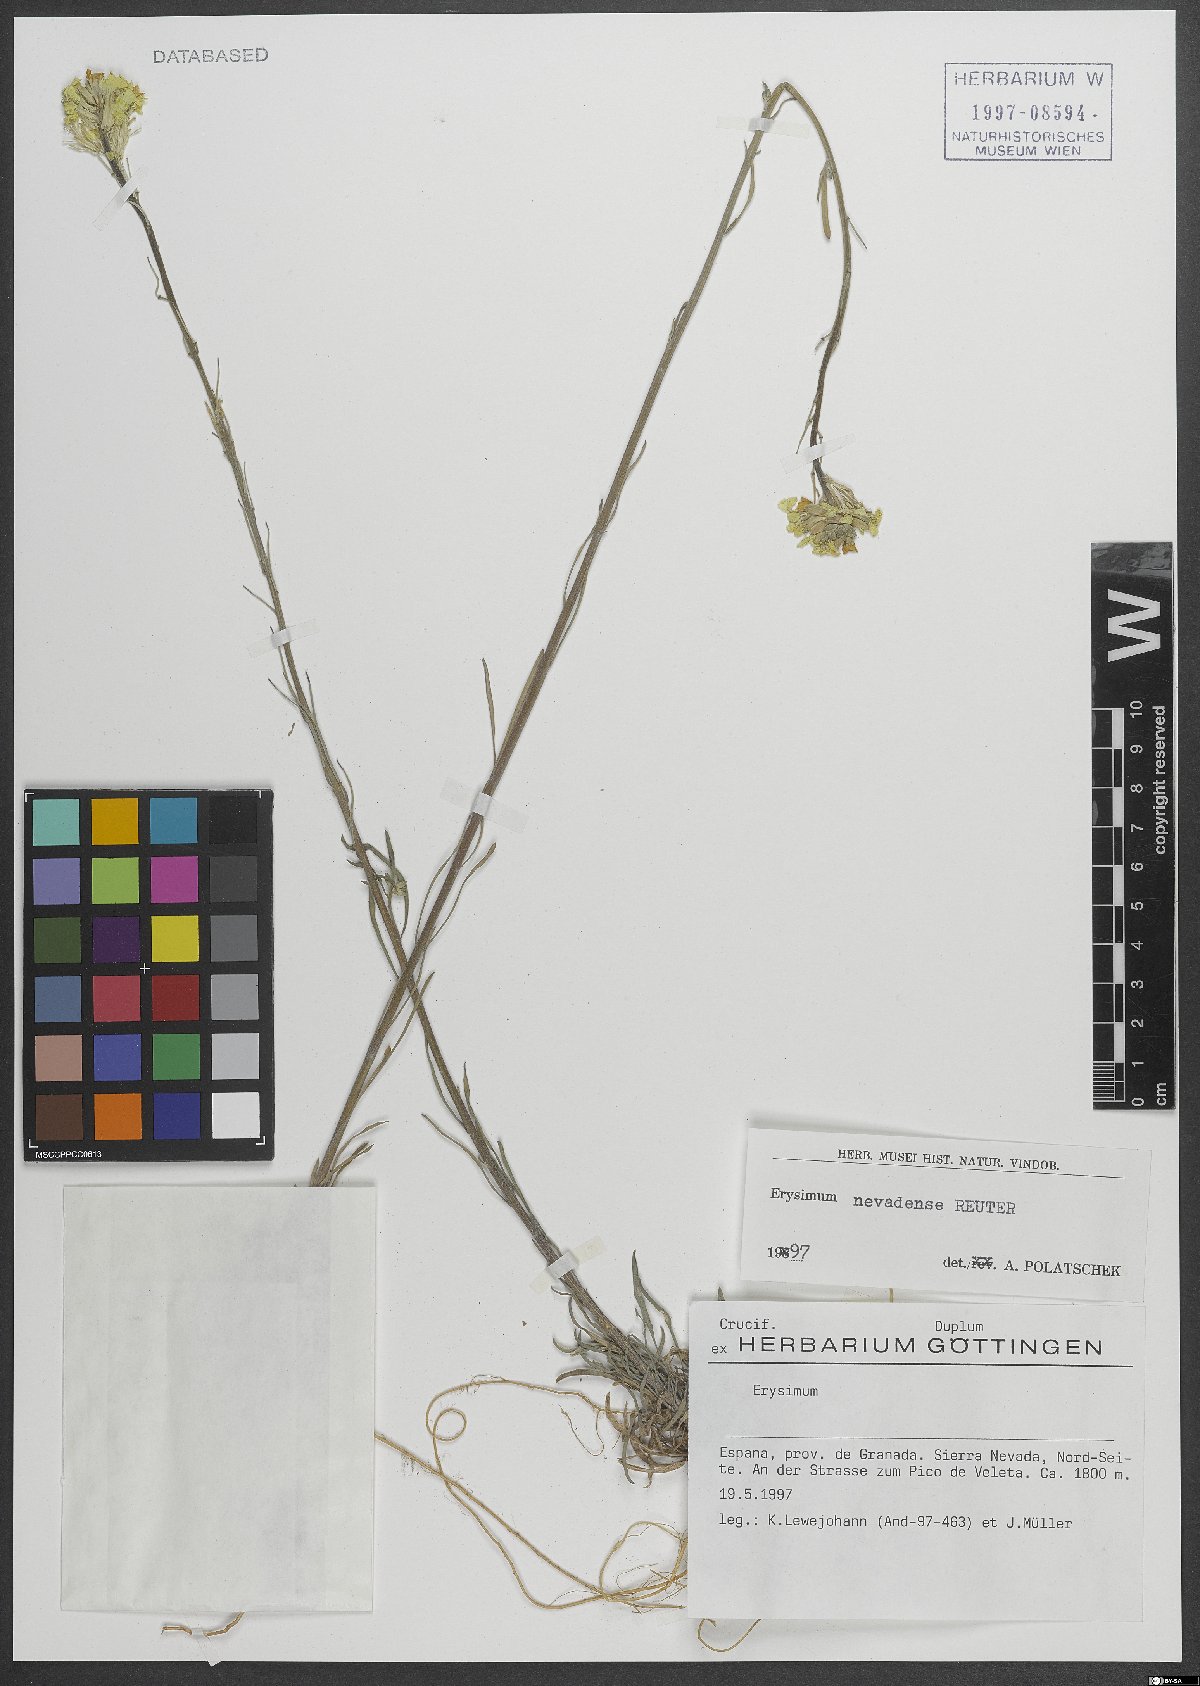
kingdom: Plantae
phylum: Tracheophyta
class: Magnoliopsida
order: Brassicales
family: Brassicaceae
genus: Erysimum
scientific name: Erysimum nevadense
